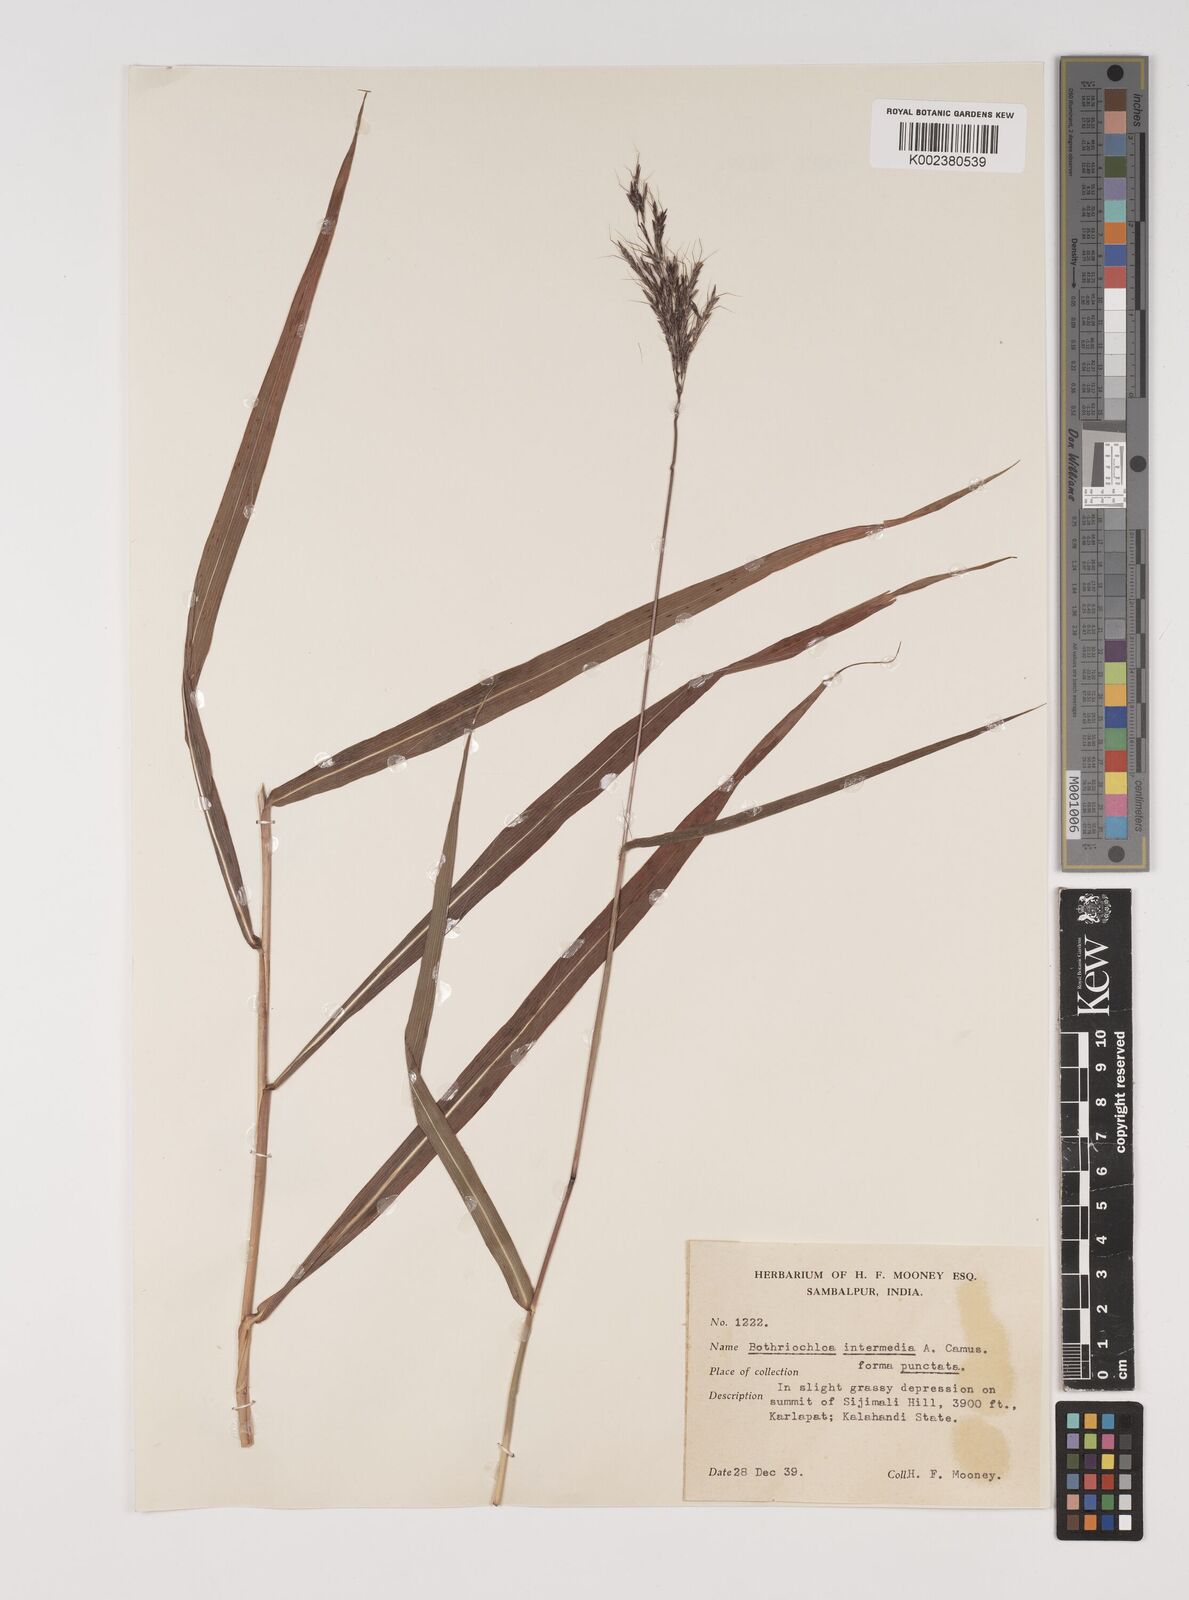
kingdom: Plantae
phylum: Tracheophyta
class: Liliopsida
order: Poales
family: Poaceae
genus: Bothriochloa
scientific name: Bothriochloa bladhii
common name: Caucasian bluestem
